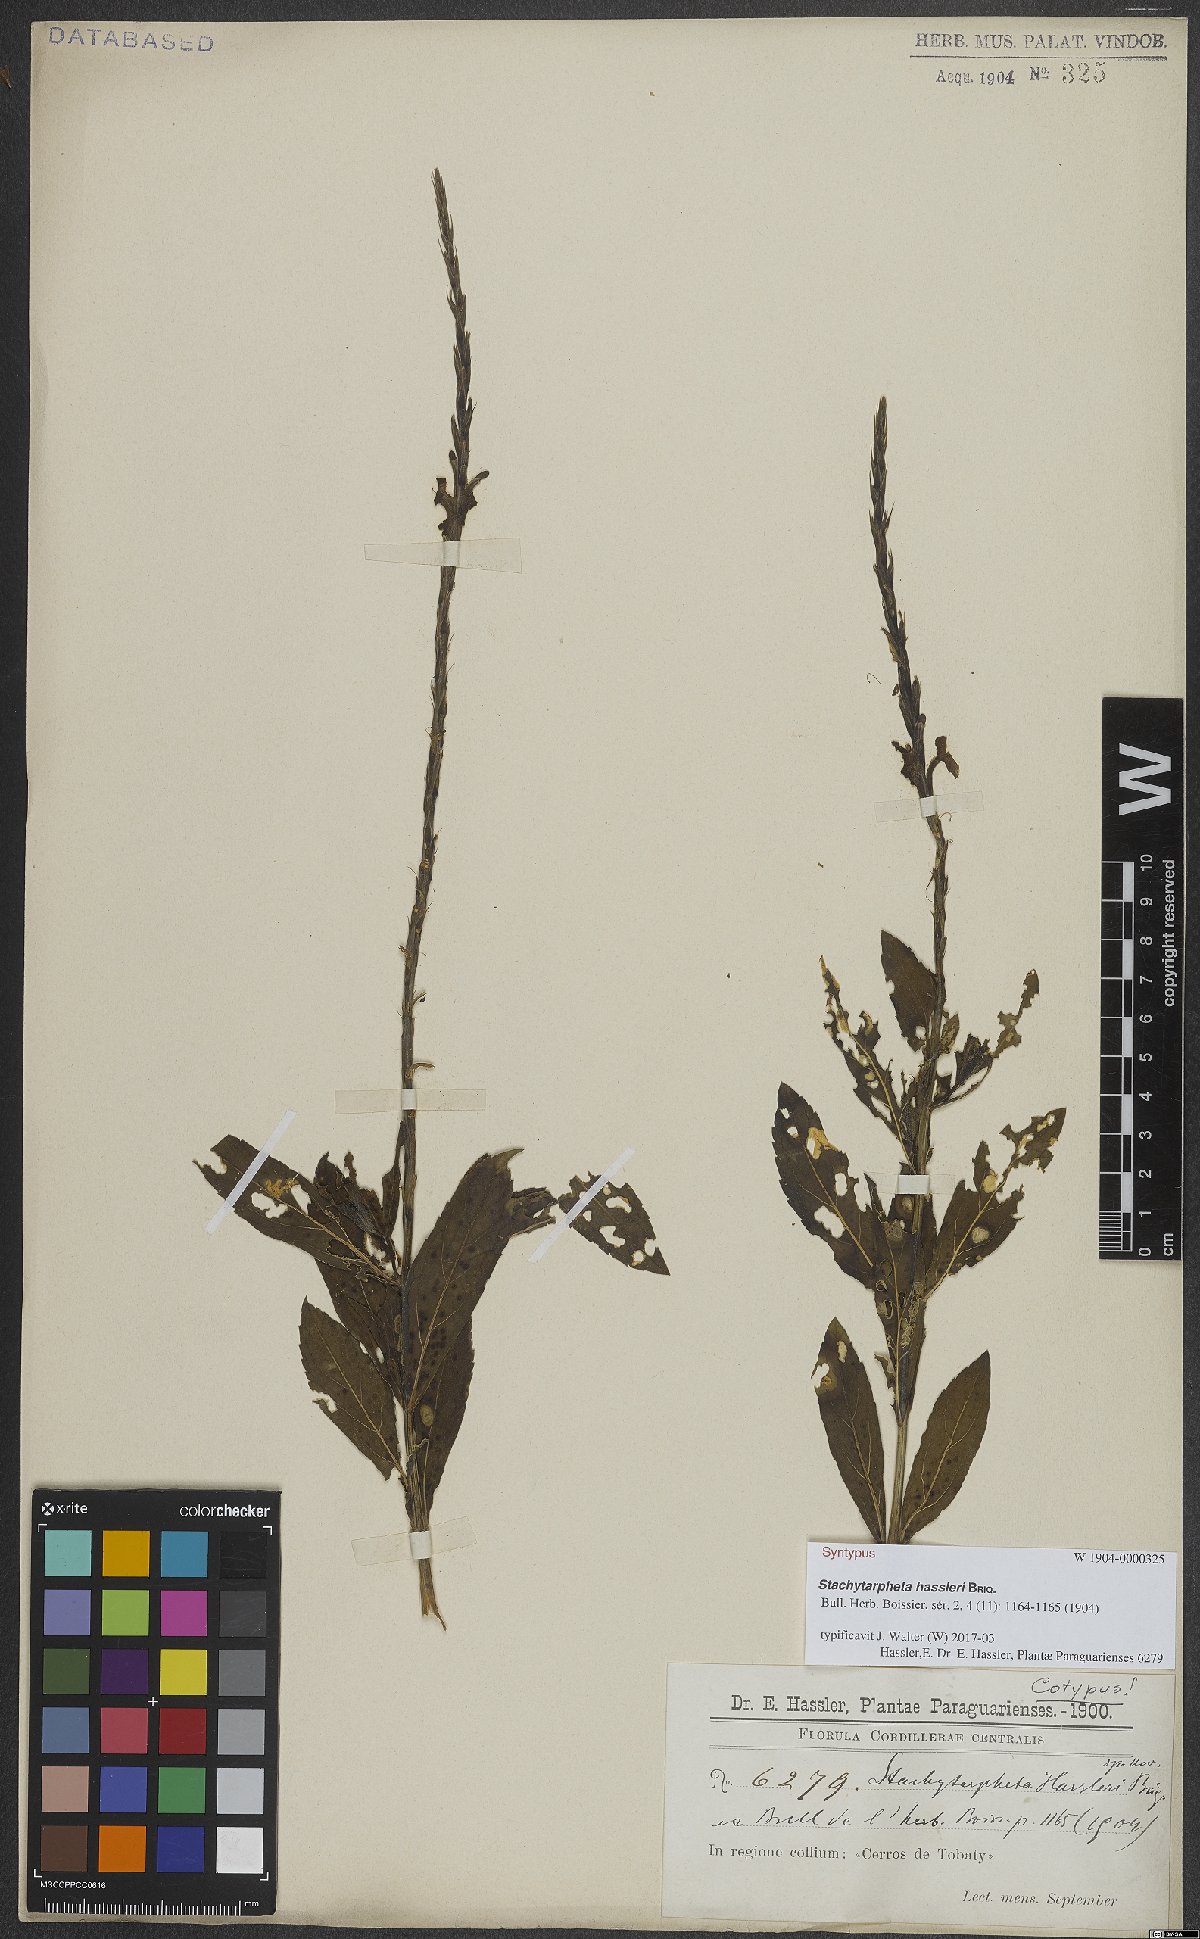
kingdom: Plantae
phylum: Tracheophyta
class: Magnoliopsida
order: Lamiales
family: Verbenaceae
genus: Stachytarpheta
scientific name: Stachytarpheta hassleri
